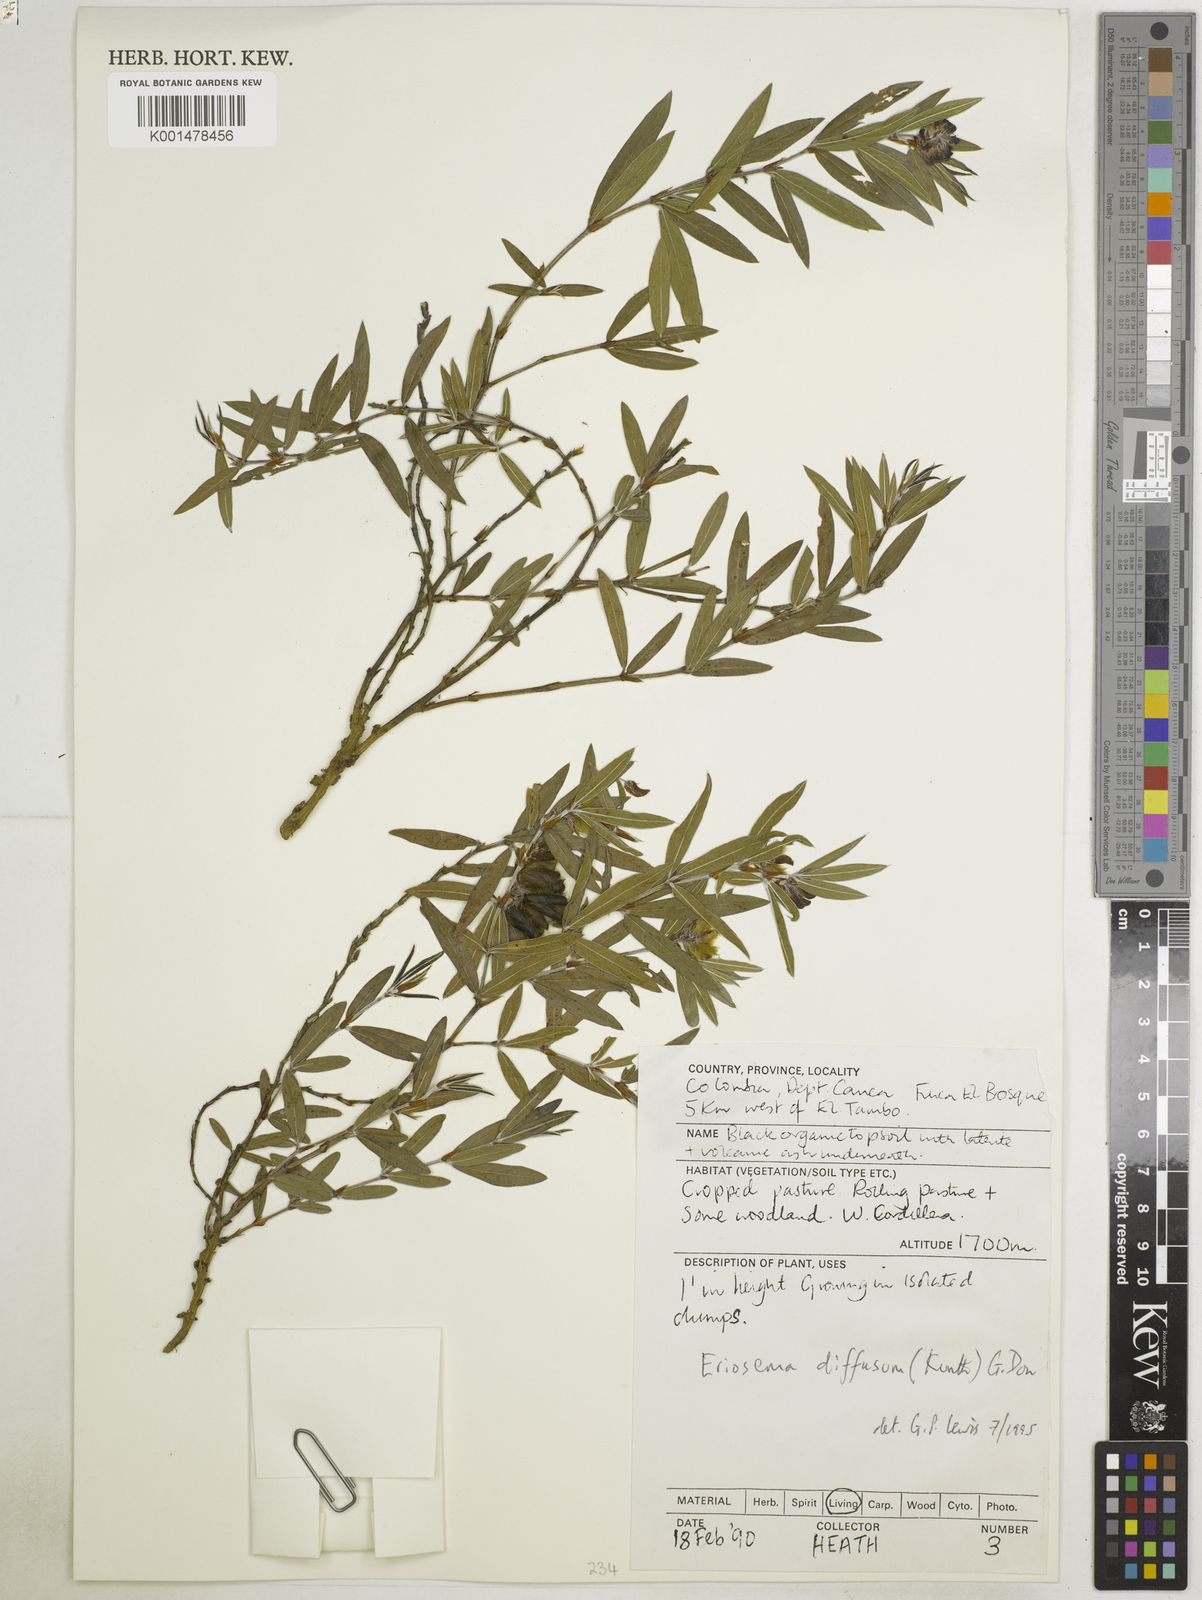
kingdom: Plantae
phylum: Tracheophyta
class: Magnoliopsida
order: Fabales
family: Fabaceae
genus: Eriosema
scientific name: Eriosema diffusum
